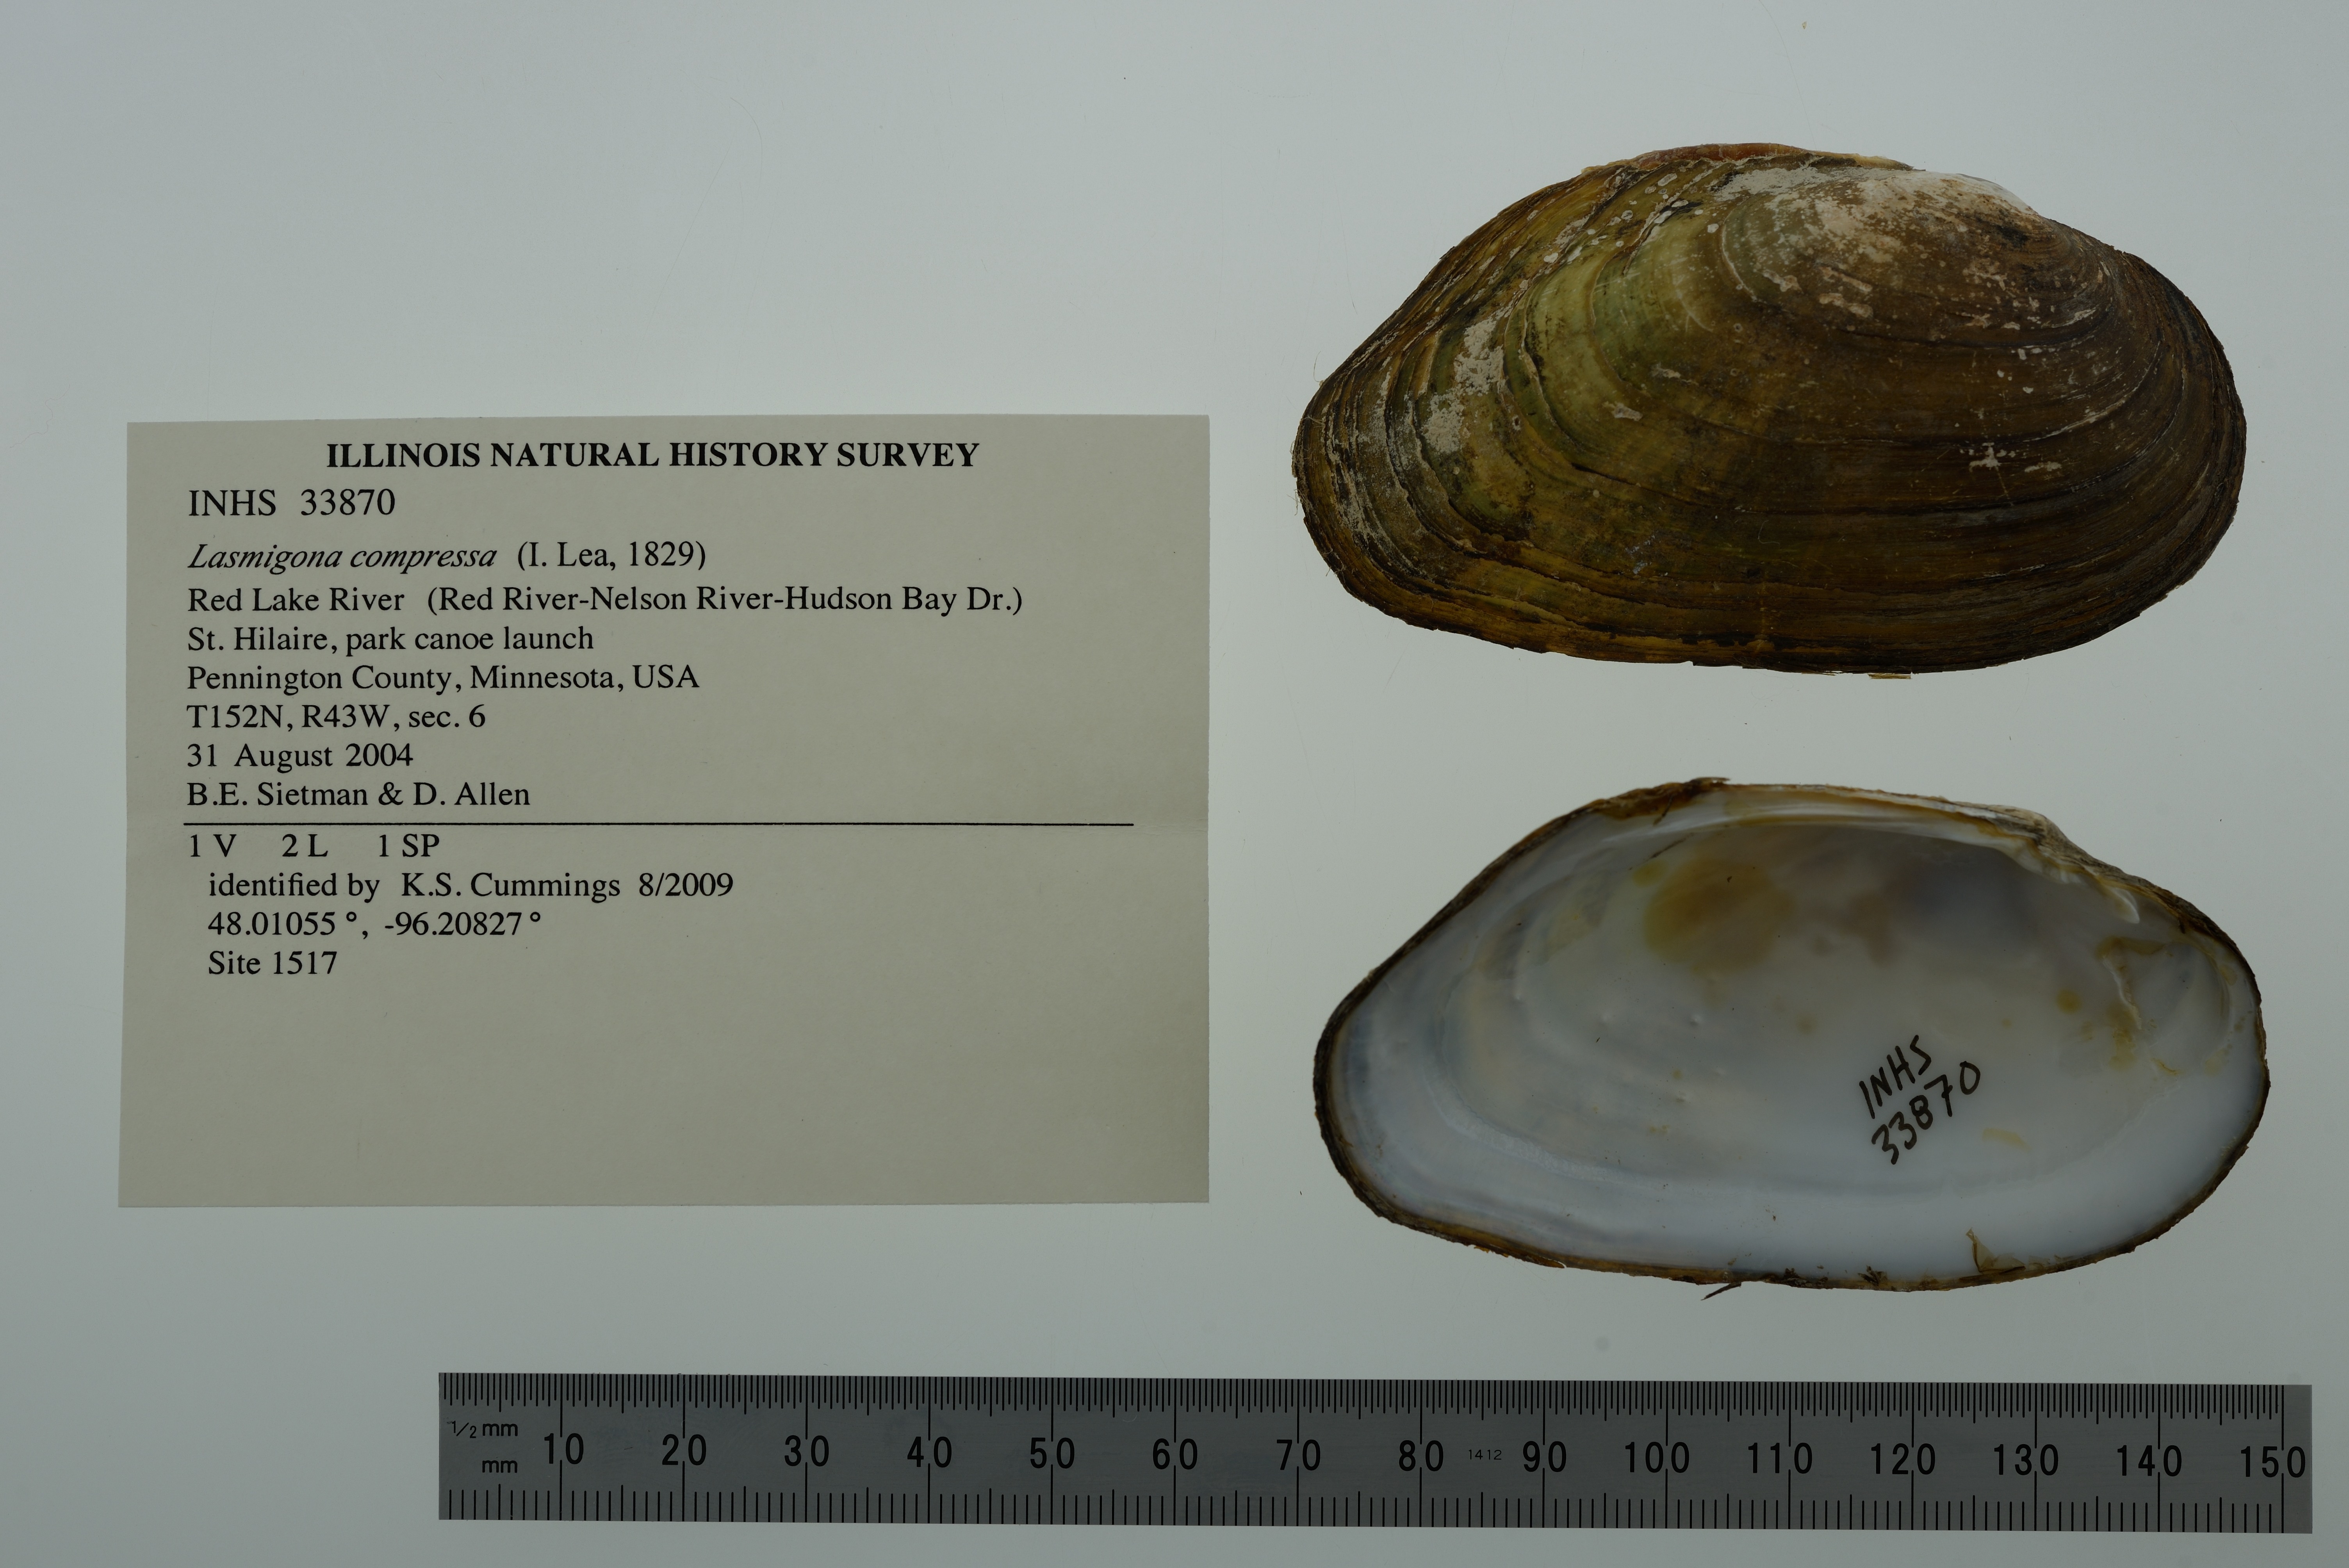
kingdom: Animalia
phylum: Mollusca
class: Bivalvia
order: Unionida
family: Unionidae
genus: Lasmigona
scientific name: Lasmigona compressa
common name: Creek heelsplitter
